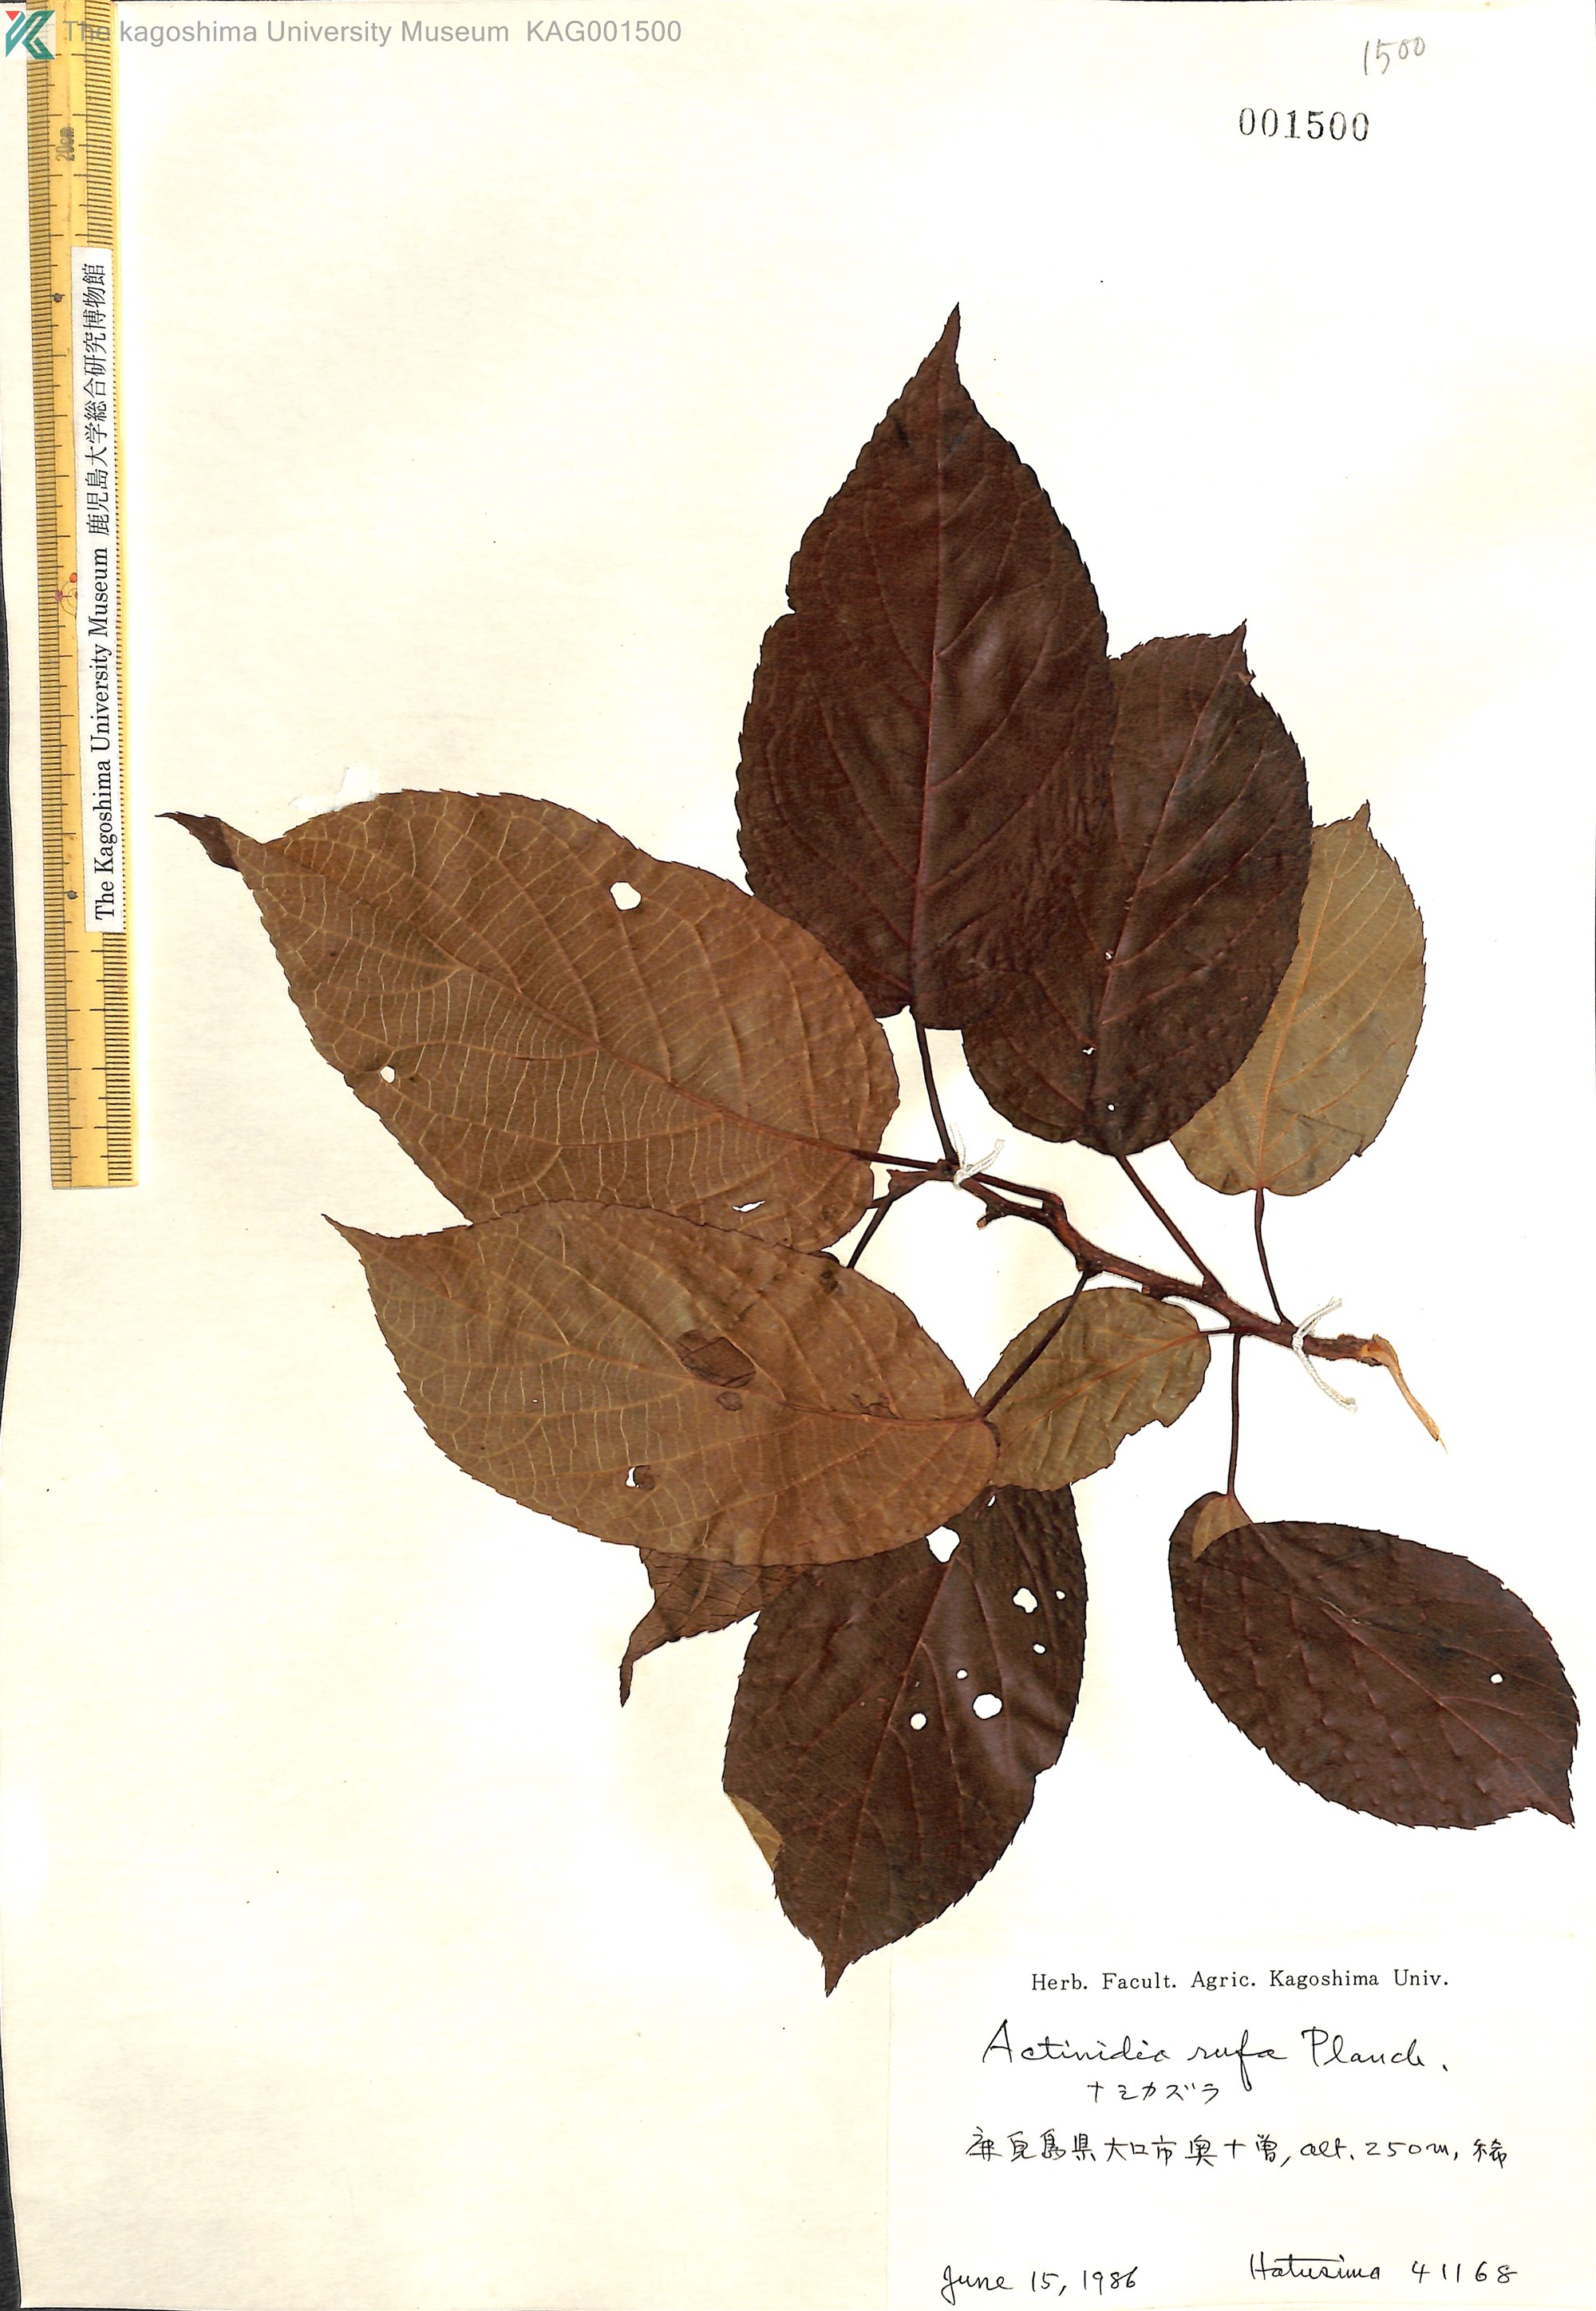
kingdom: Plantae
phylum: Tracheophyta
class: Magnoliopsida
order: Ericales
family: Actinidiaceae
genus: Actinidia
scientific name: Actinidia rufa
